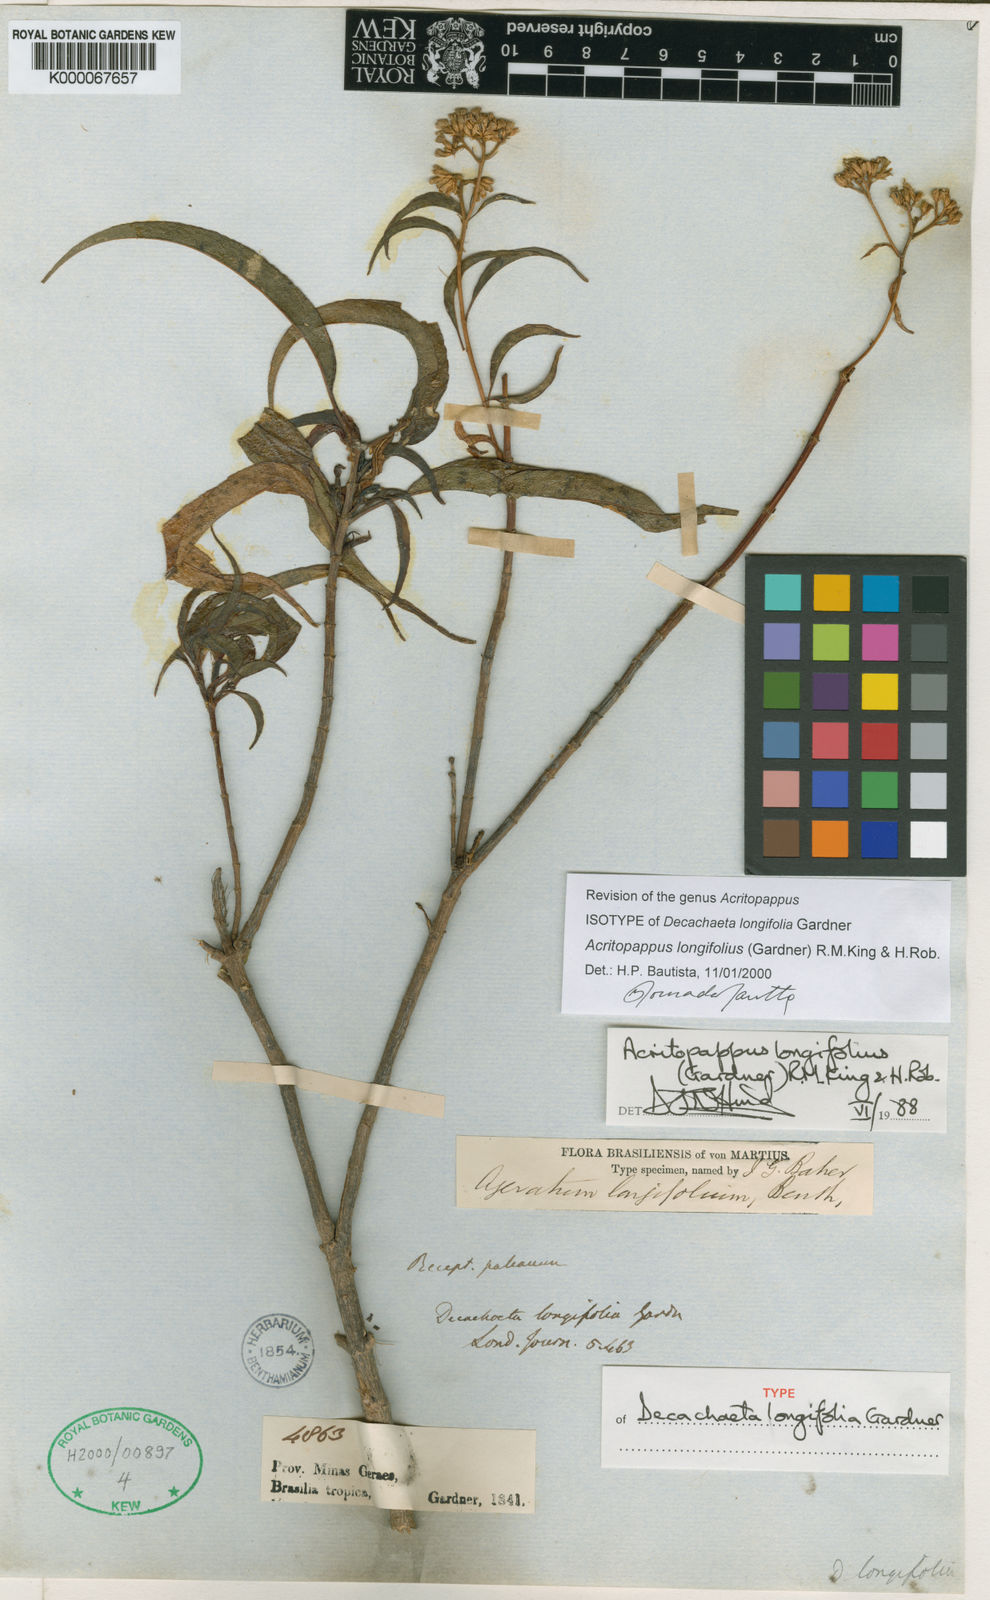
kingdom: Plantae
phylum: Tracheophyta
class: Magnoliopsida
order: Asterales
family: Asteraceae
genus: Acritopappus
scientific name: Acritopappus longifolius
